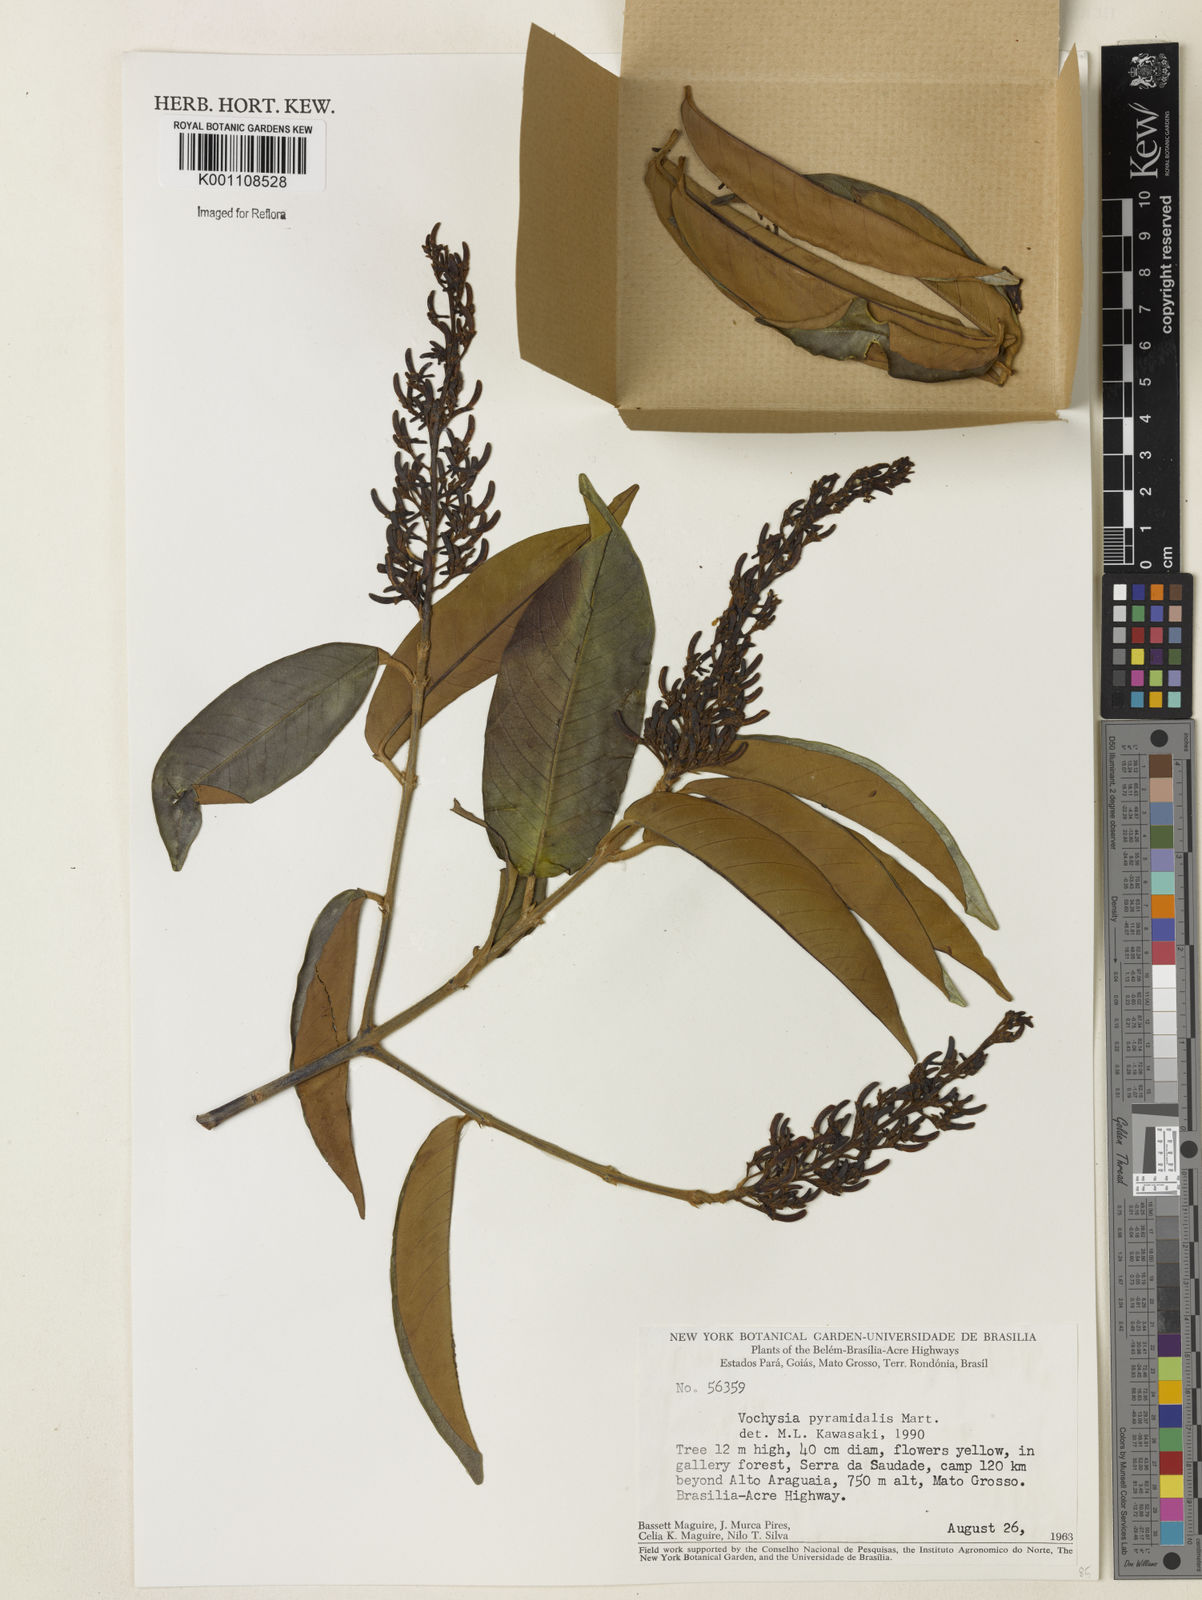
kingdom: Plantae
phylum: Tracheophyta
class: Magnoliopsida
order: Myrtales
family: Vochysiaceae
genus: Vochysia
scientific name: Vochysia pyramidalis
